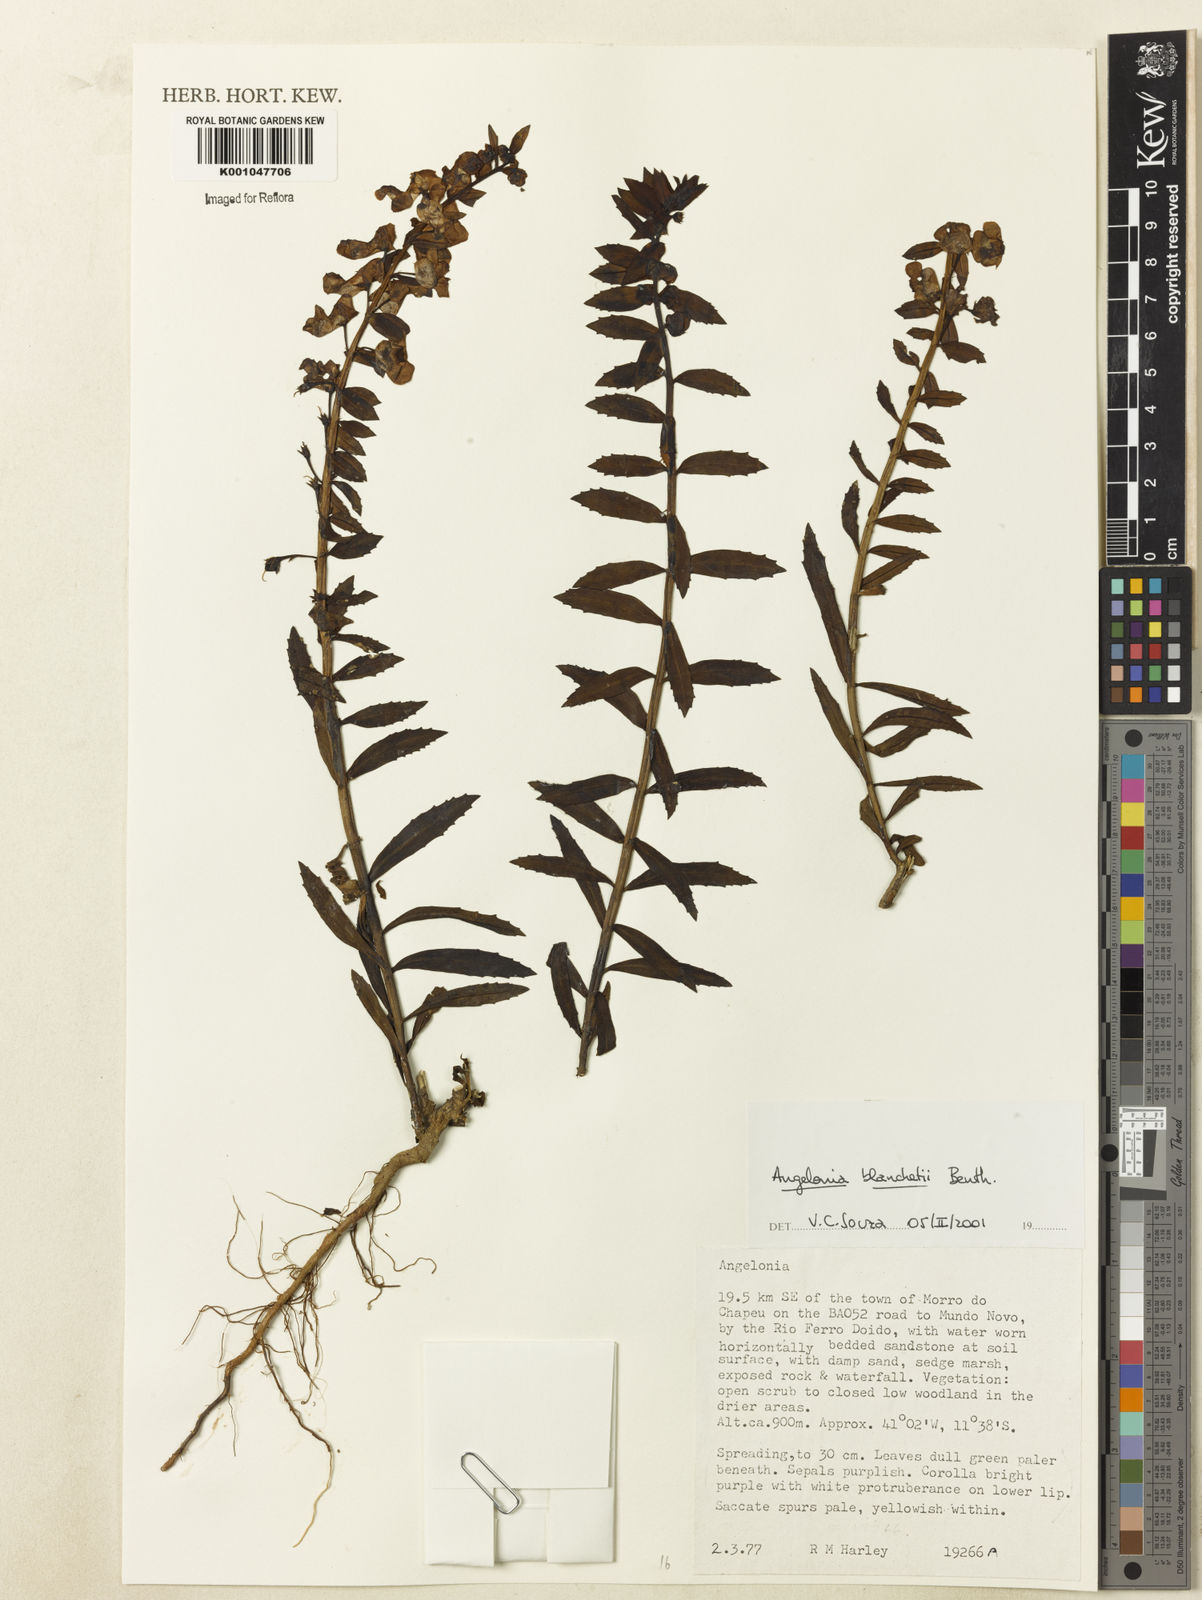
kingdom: Plantae
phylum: Tracheophyta
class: Magnoliopsida
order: Lamiales
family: Plantaginaceae
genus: Angelonia
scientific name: Angelonia blanchetii
